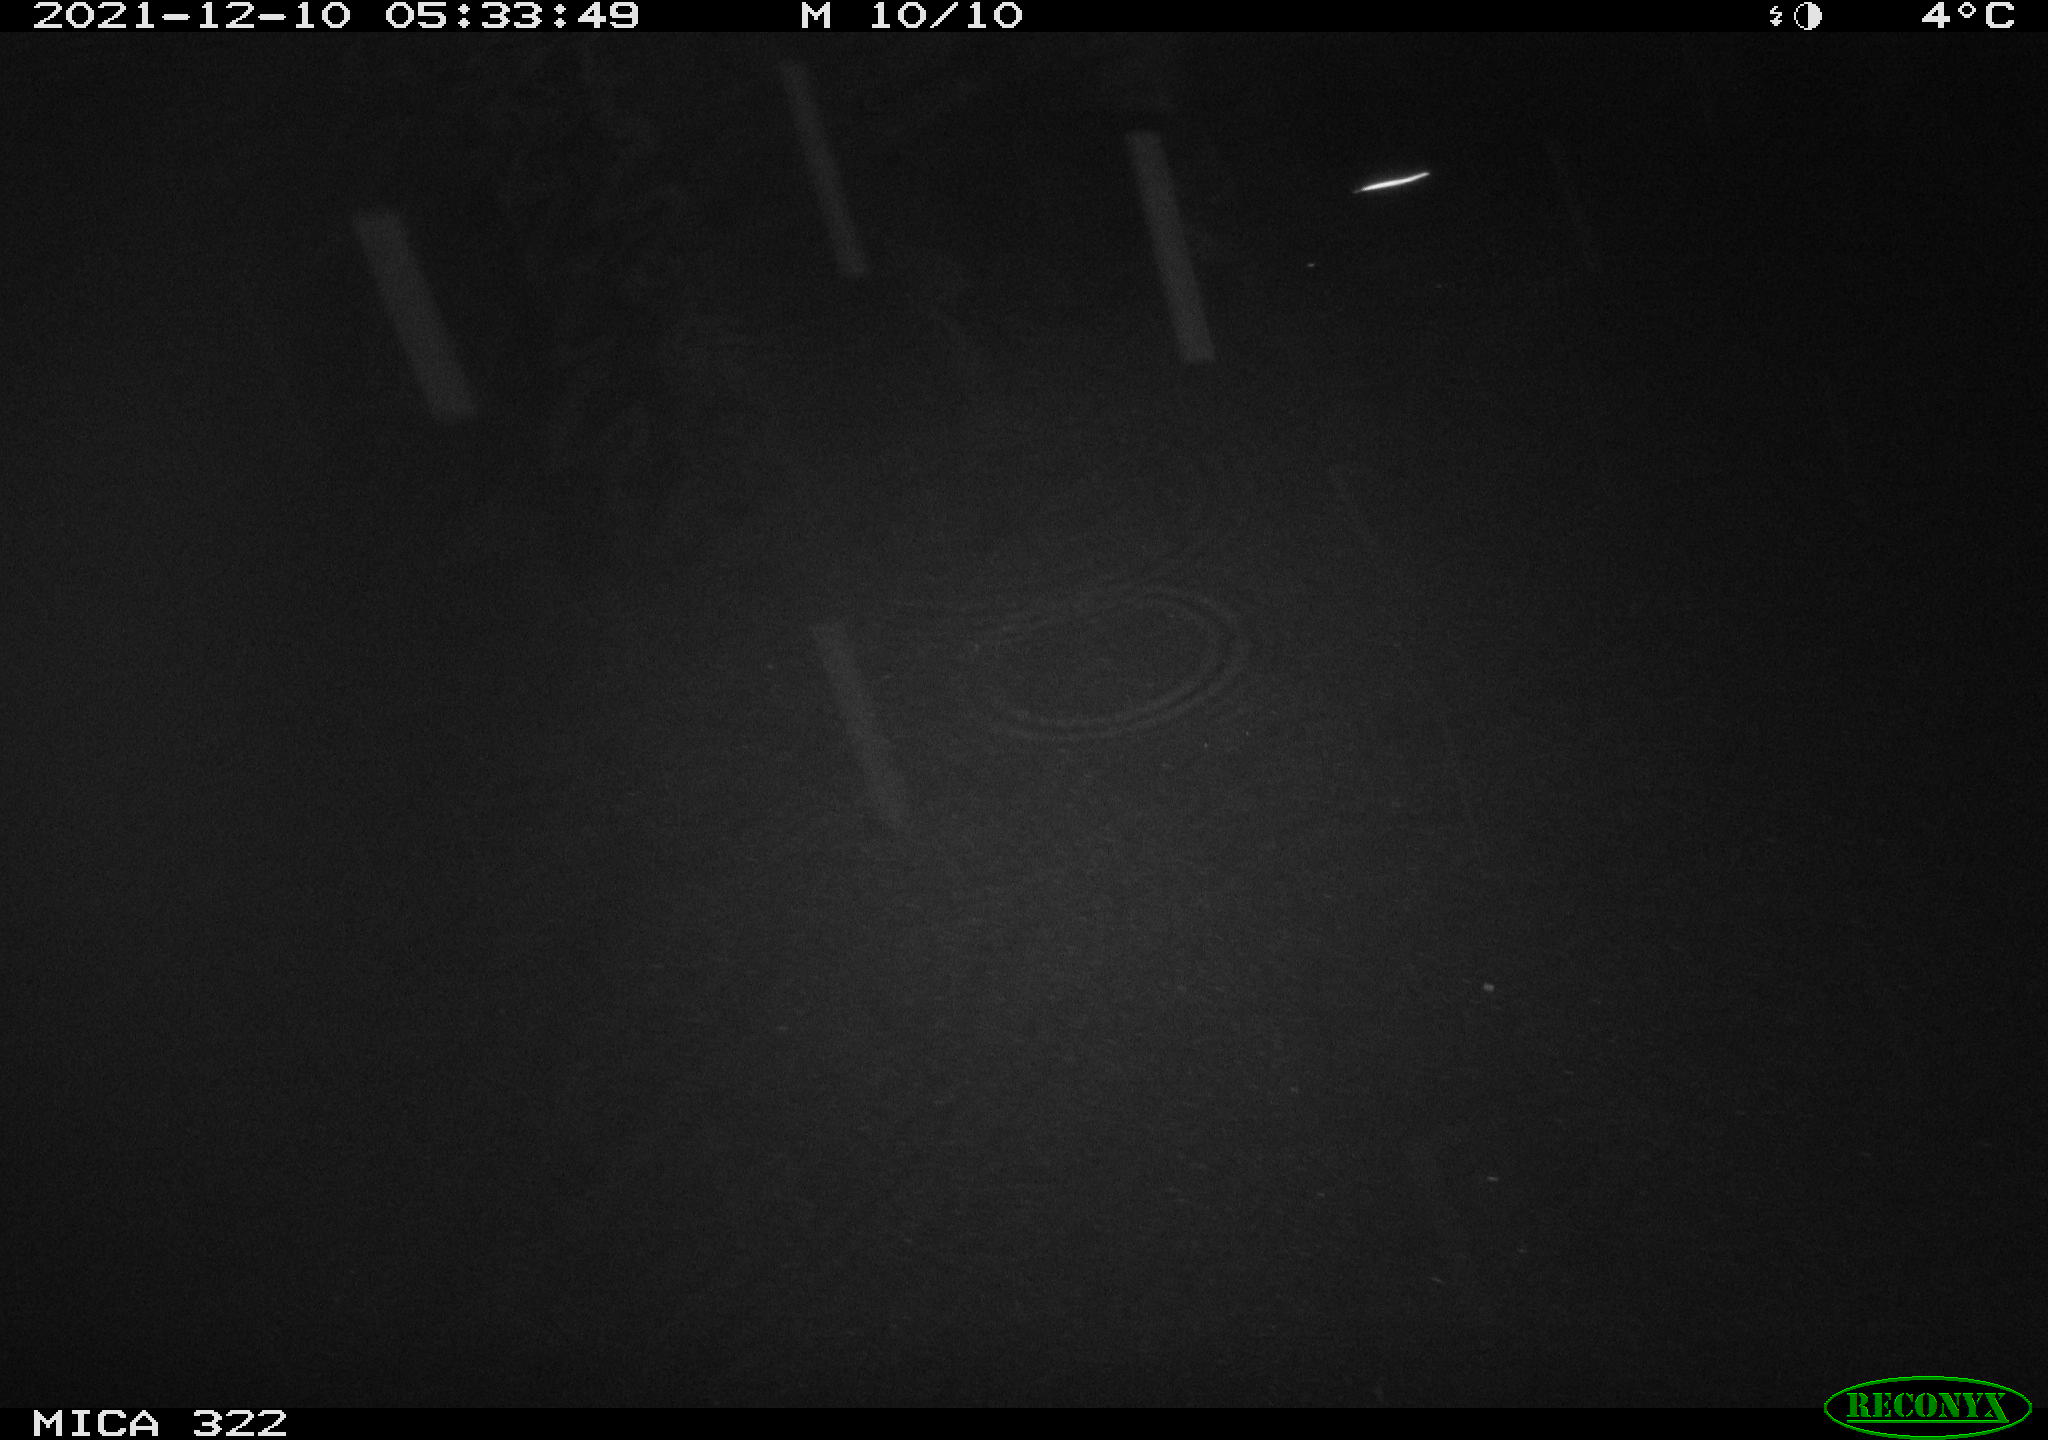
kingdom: Animalia
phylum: Chordata
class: Mammalia
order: Rodentia
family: Muridae
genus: Rattus
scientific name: Rattus norvegicus
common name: Brown rat
